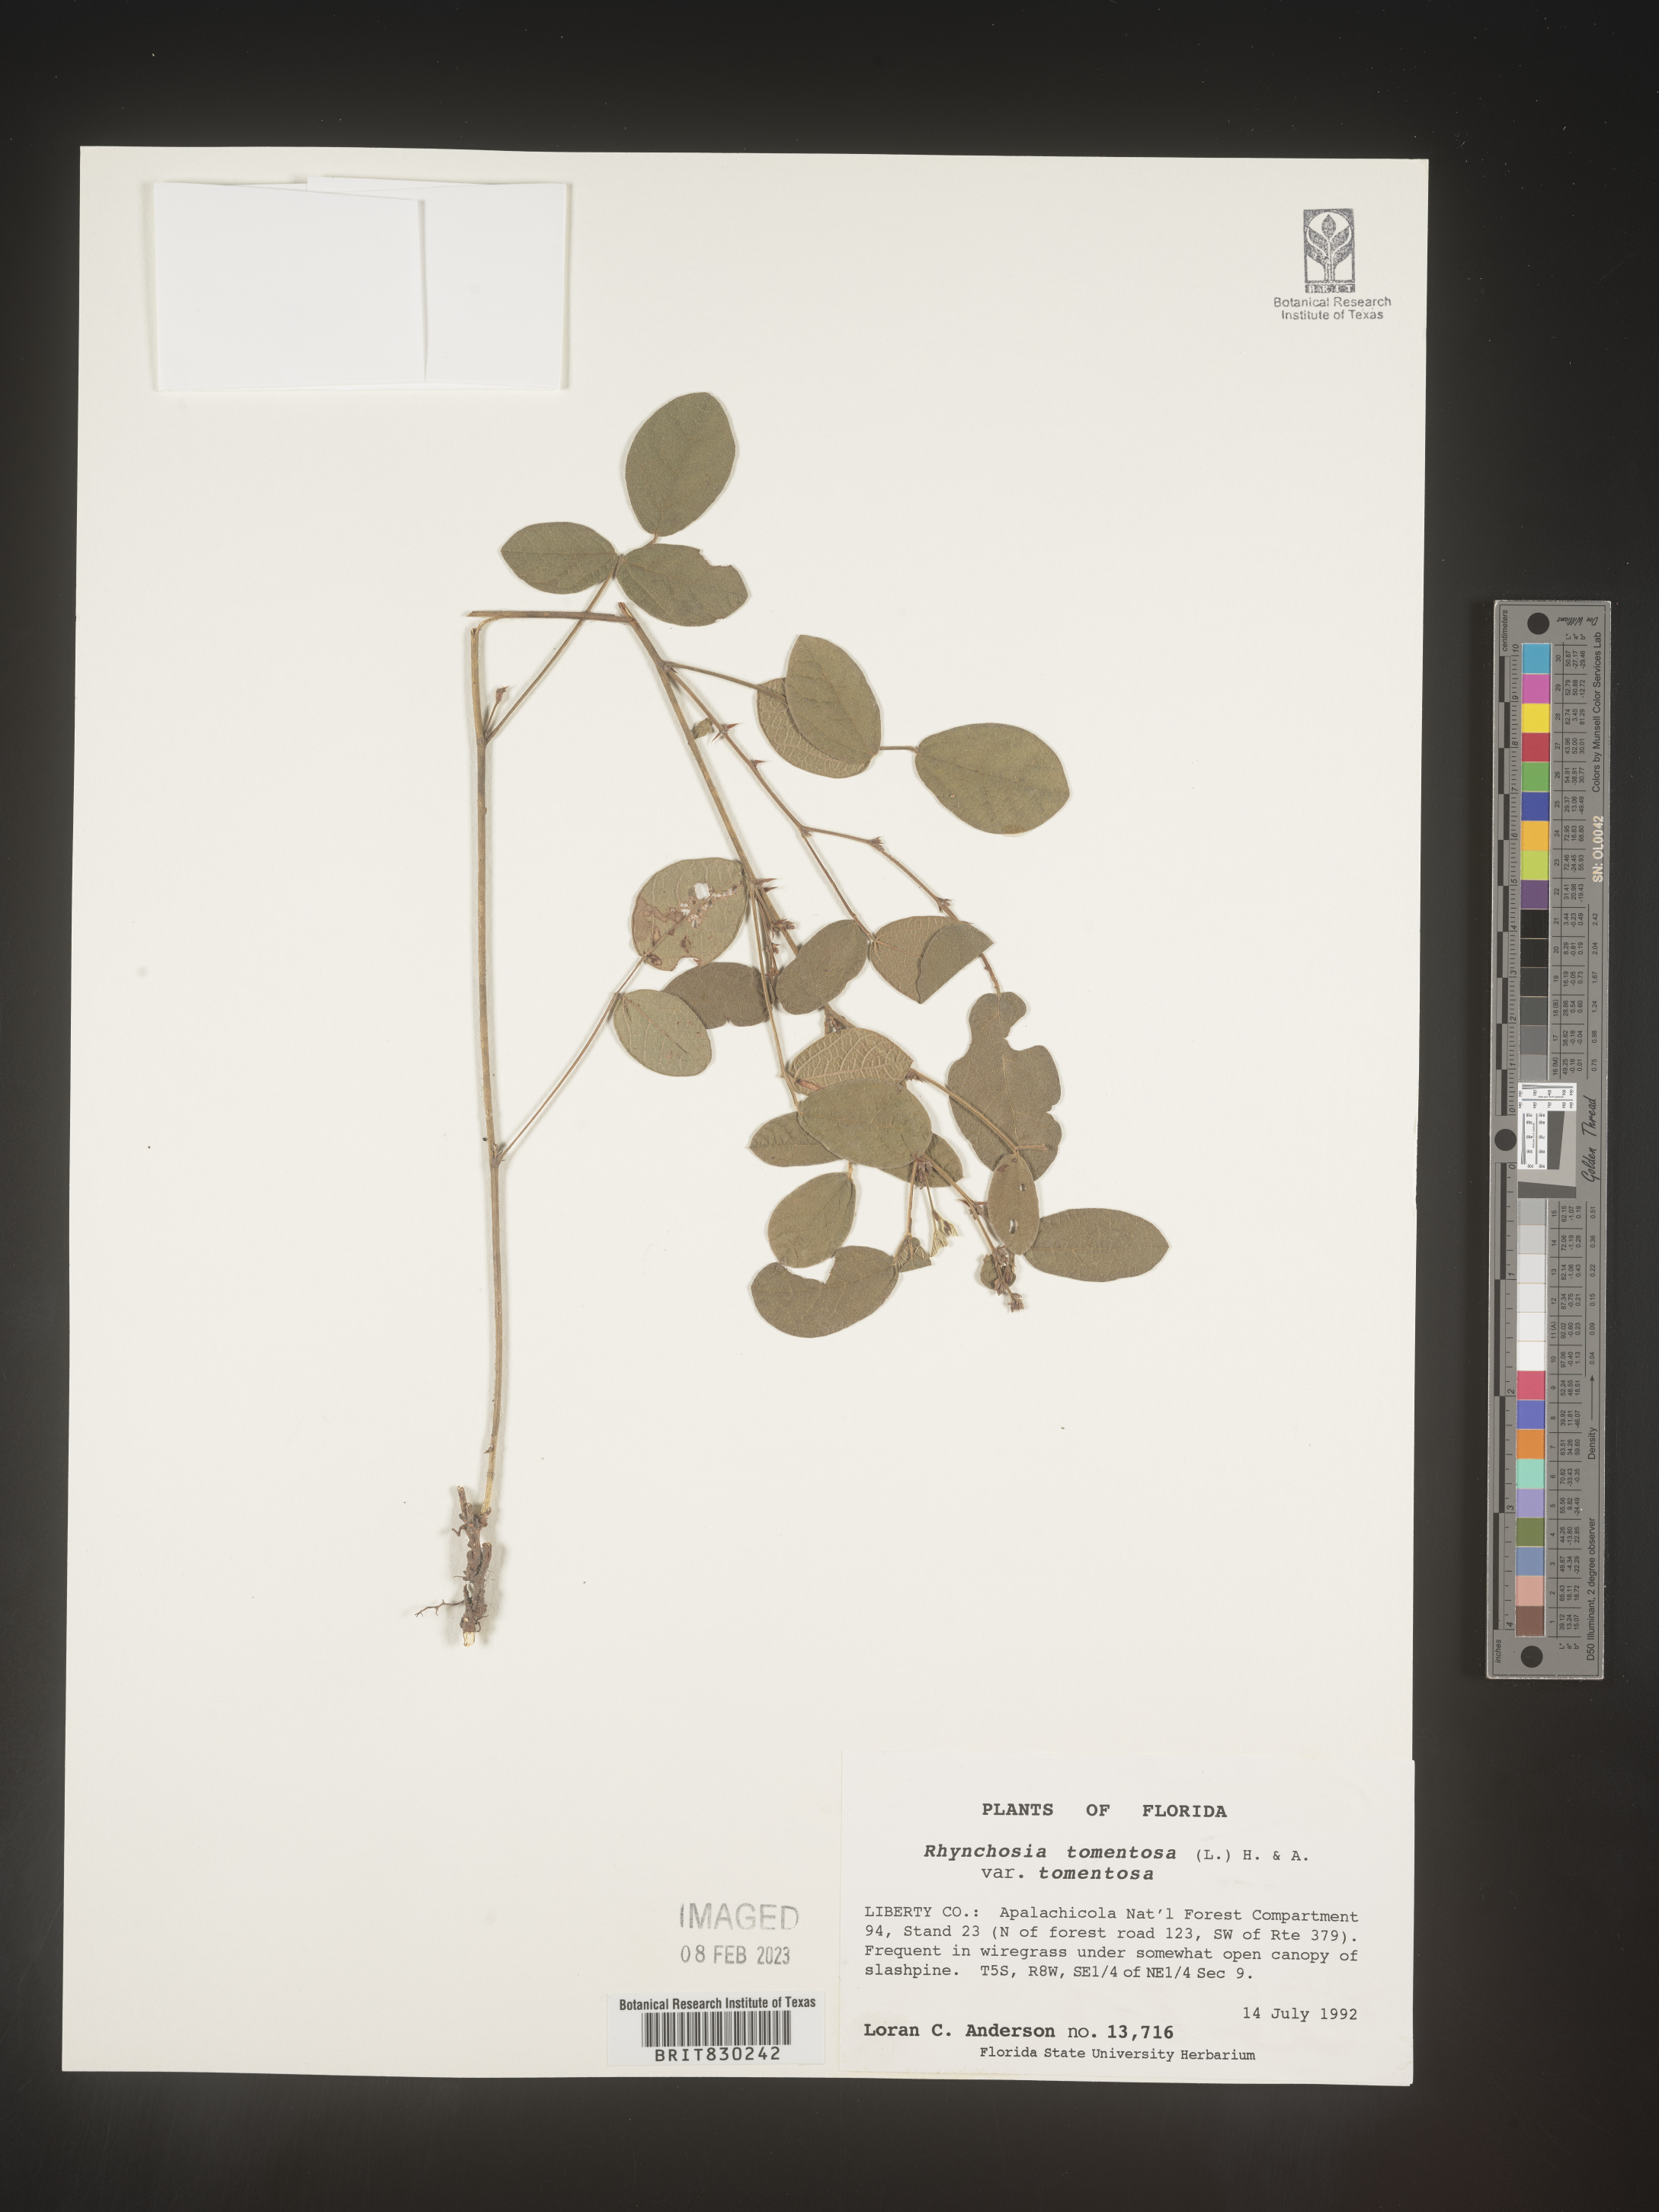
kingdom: Plantae
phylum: Tracheophyta
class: Magnoliopsida
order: Fabales
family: Fabaceae
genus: Rhynchosia
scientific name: Rhynchosia rothii
